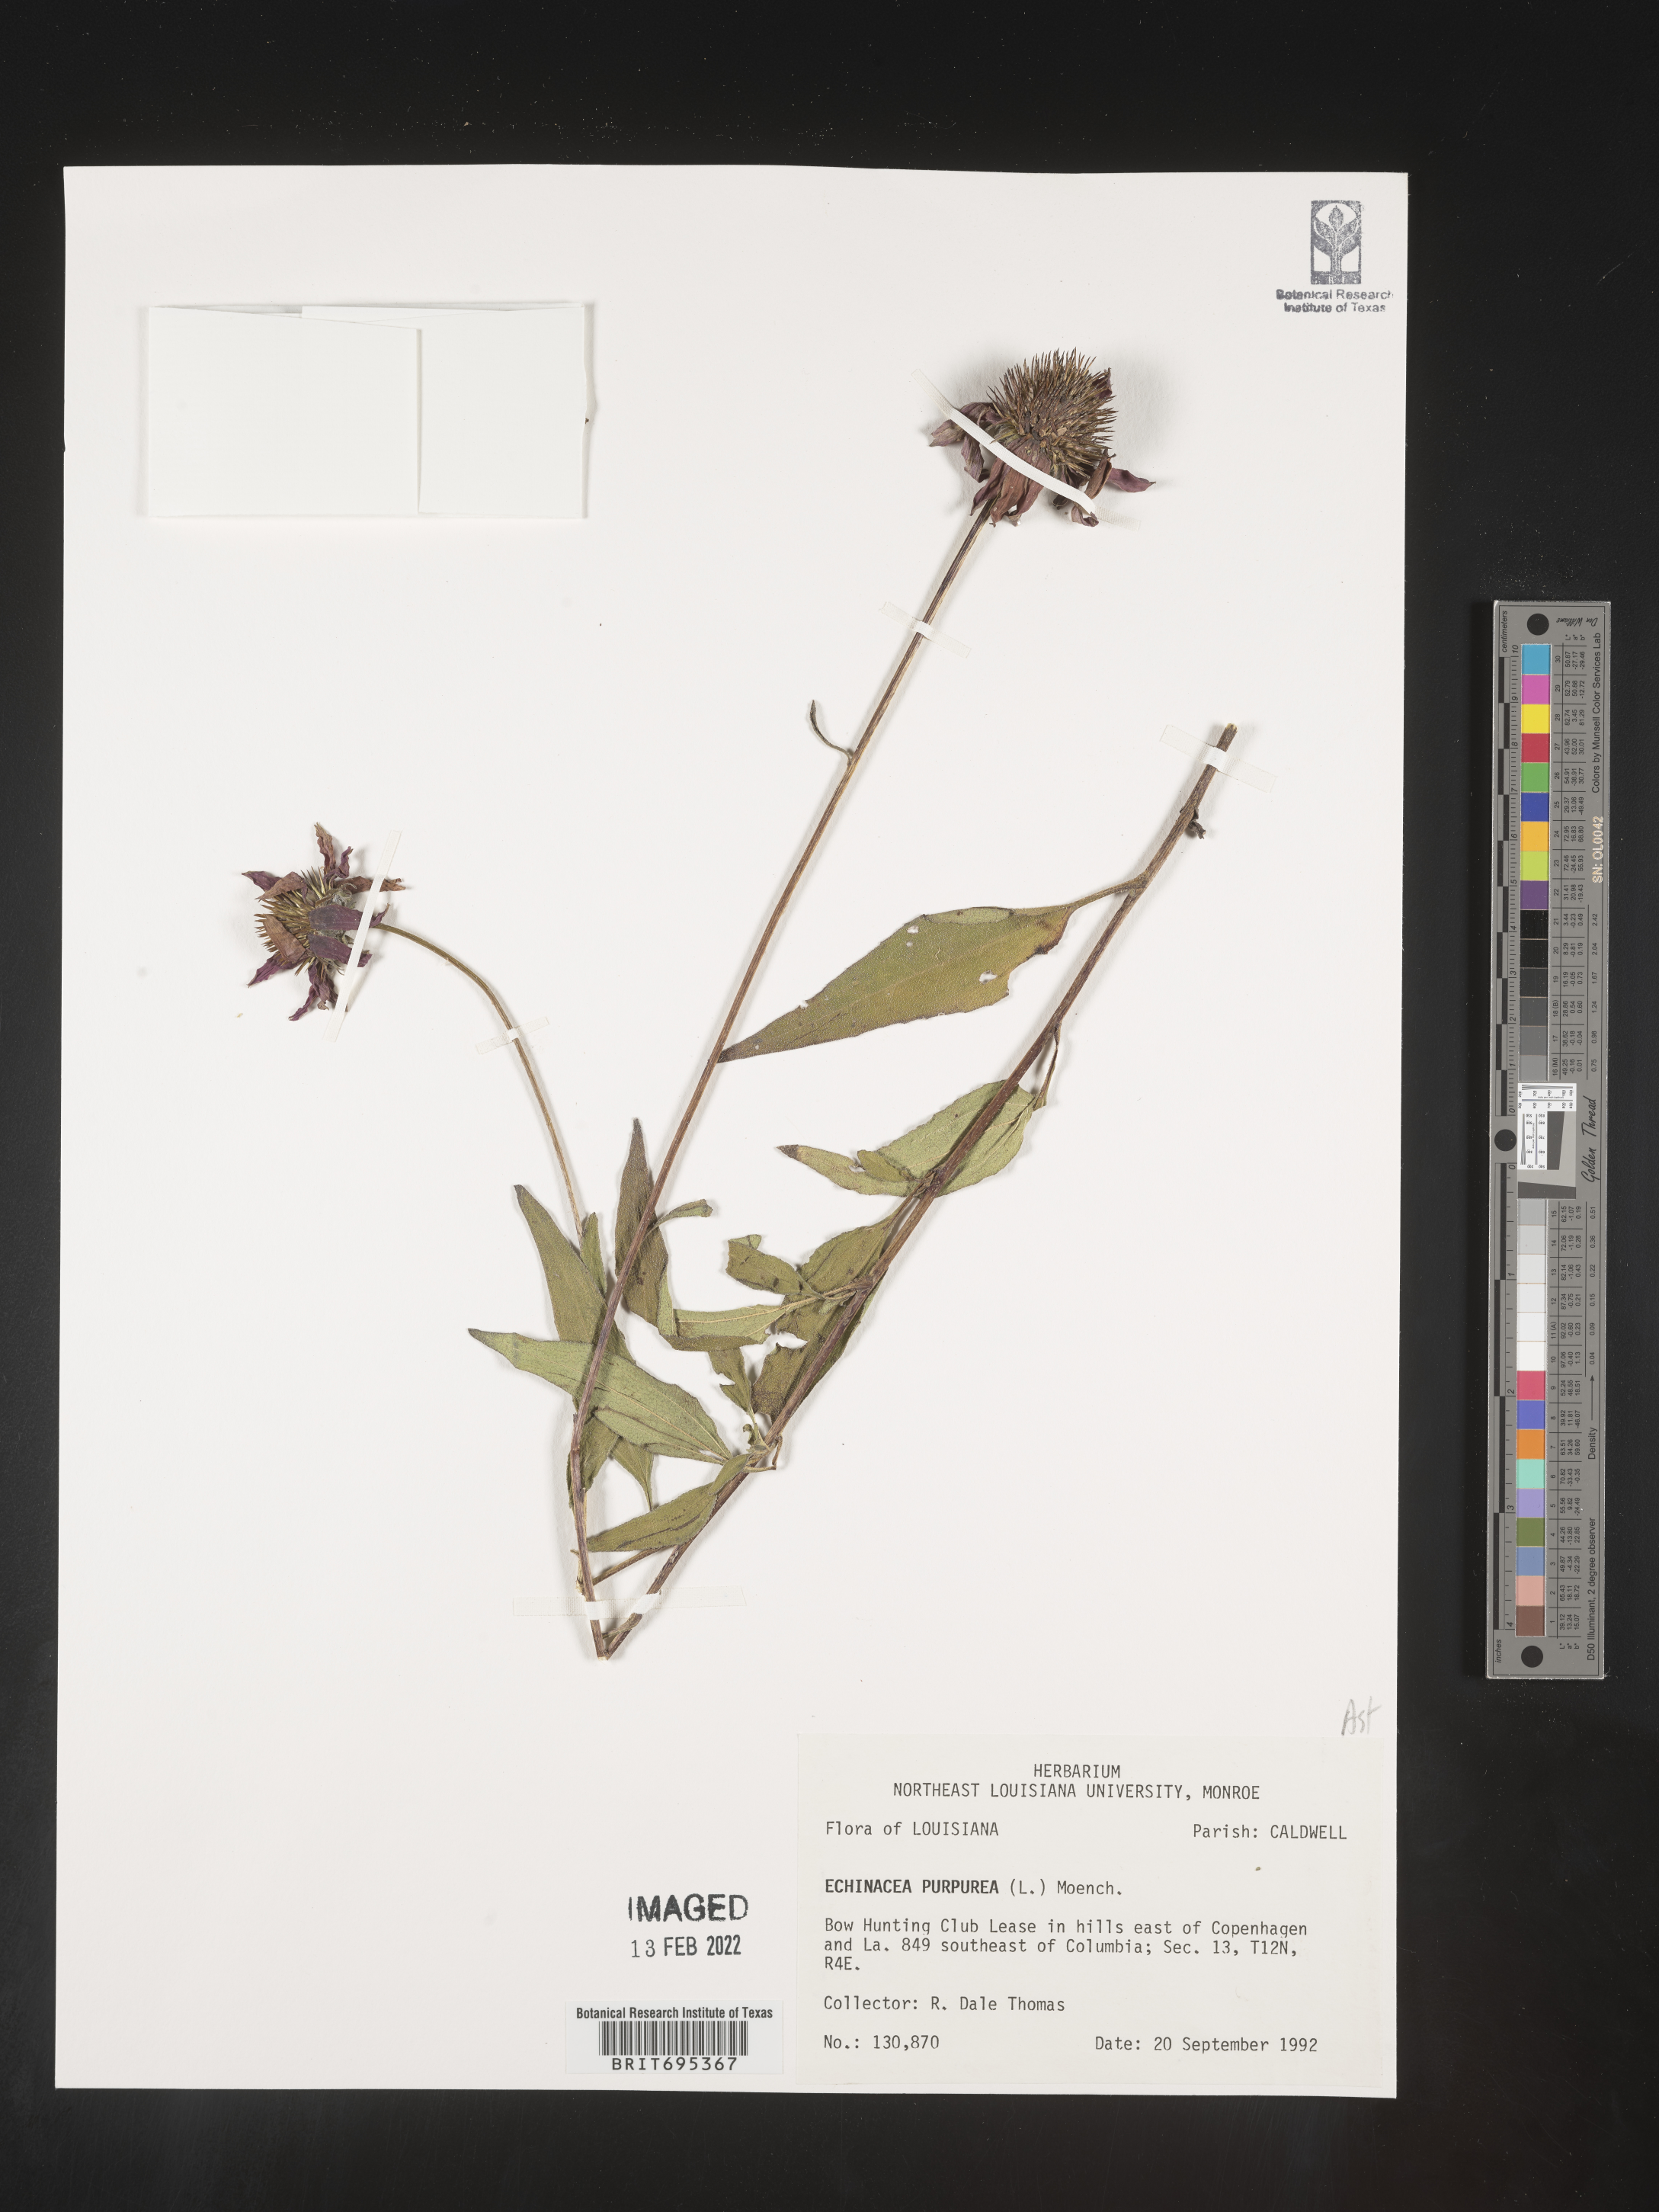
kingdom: Plantae
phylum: Tracheophyta
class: Magnoliopsida
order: Asterales
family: Asteraceae
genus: Echinacea
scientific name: Echinacea purpurea
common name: Broad-leaved purple coneflower
